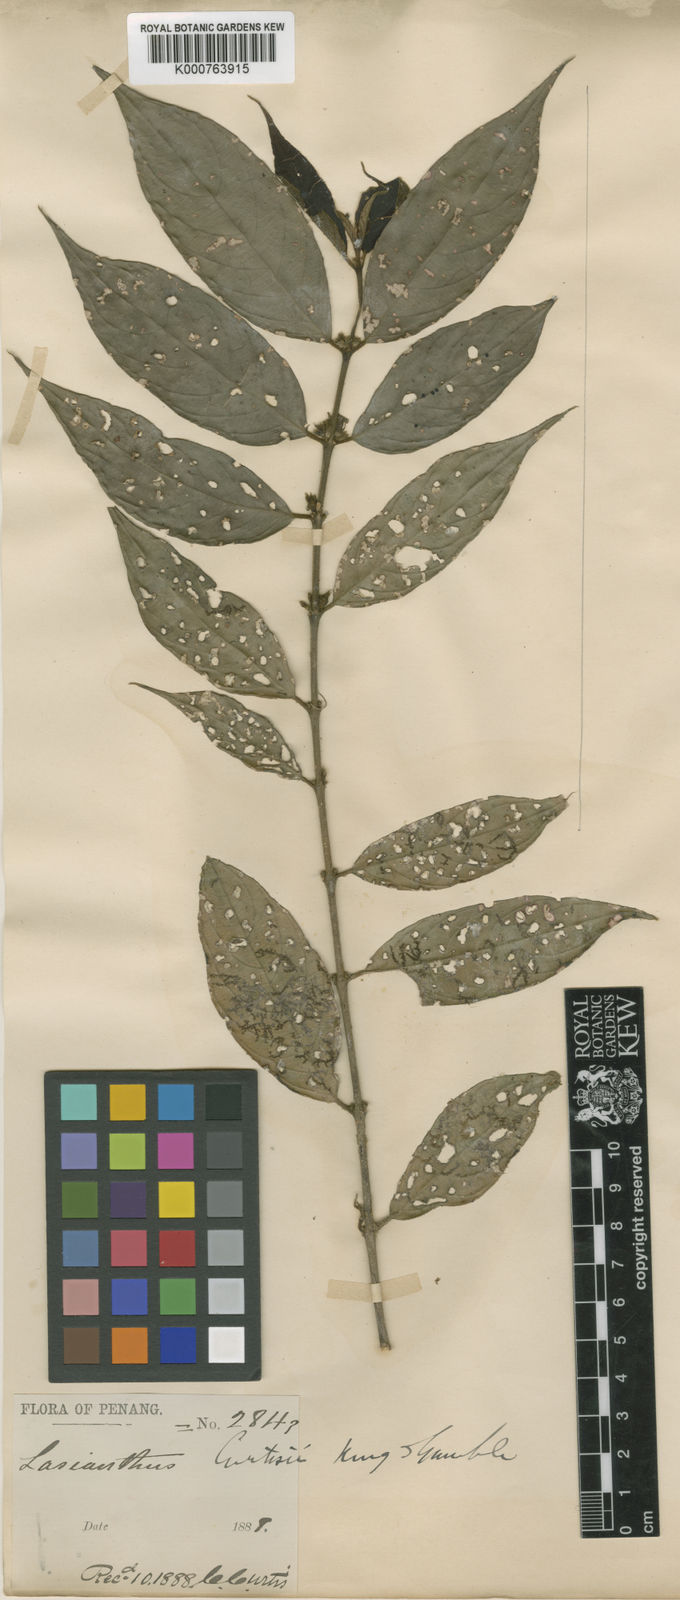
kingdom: Plantae
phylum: Tracheophyta
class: Magnoliopsida
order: Gentianales
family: Rubiaceae
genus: Lasianthus
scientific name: Lasianthus curtisii
